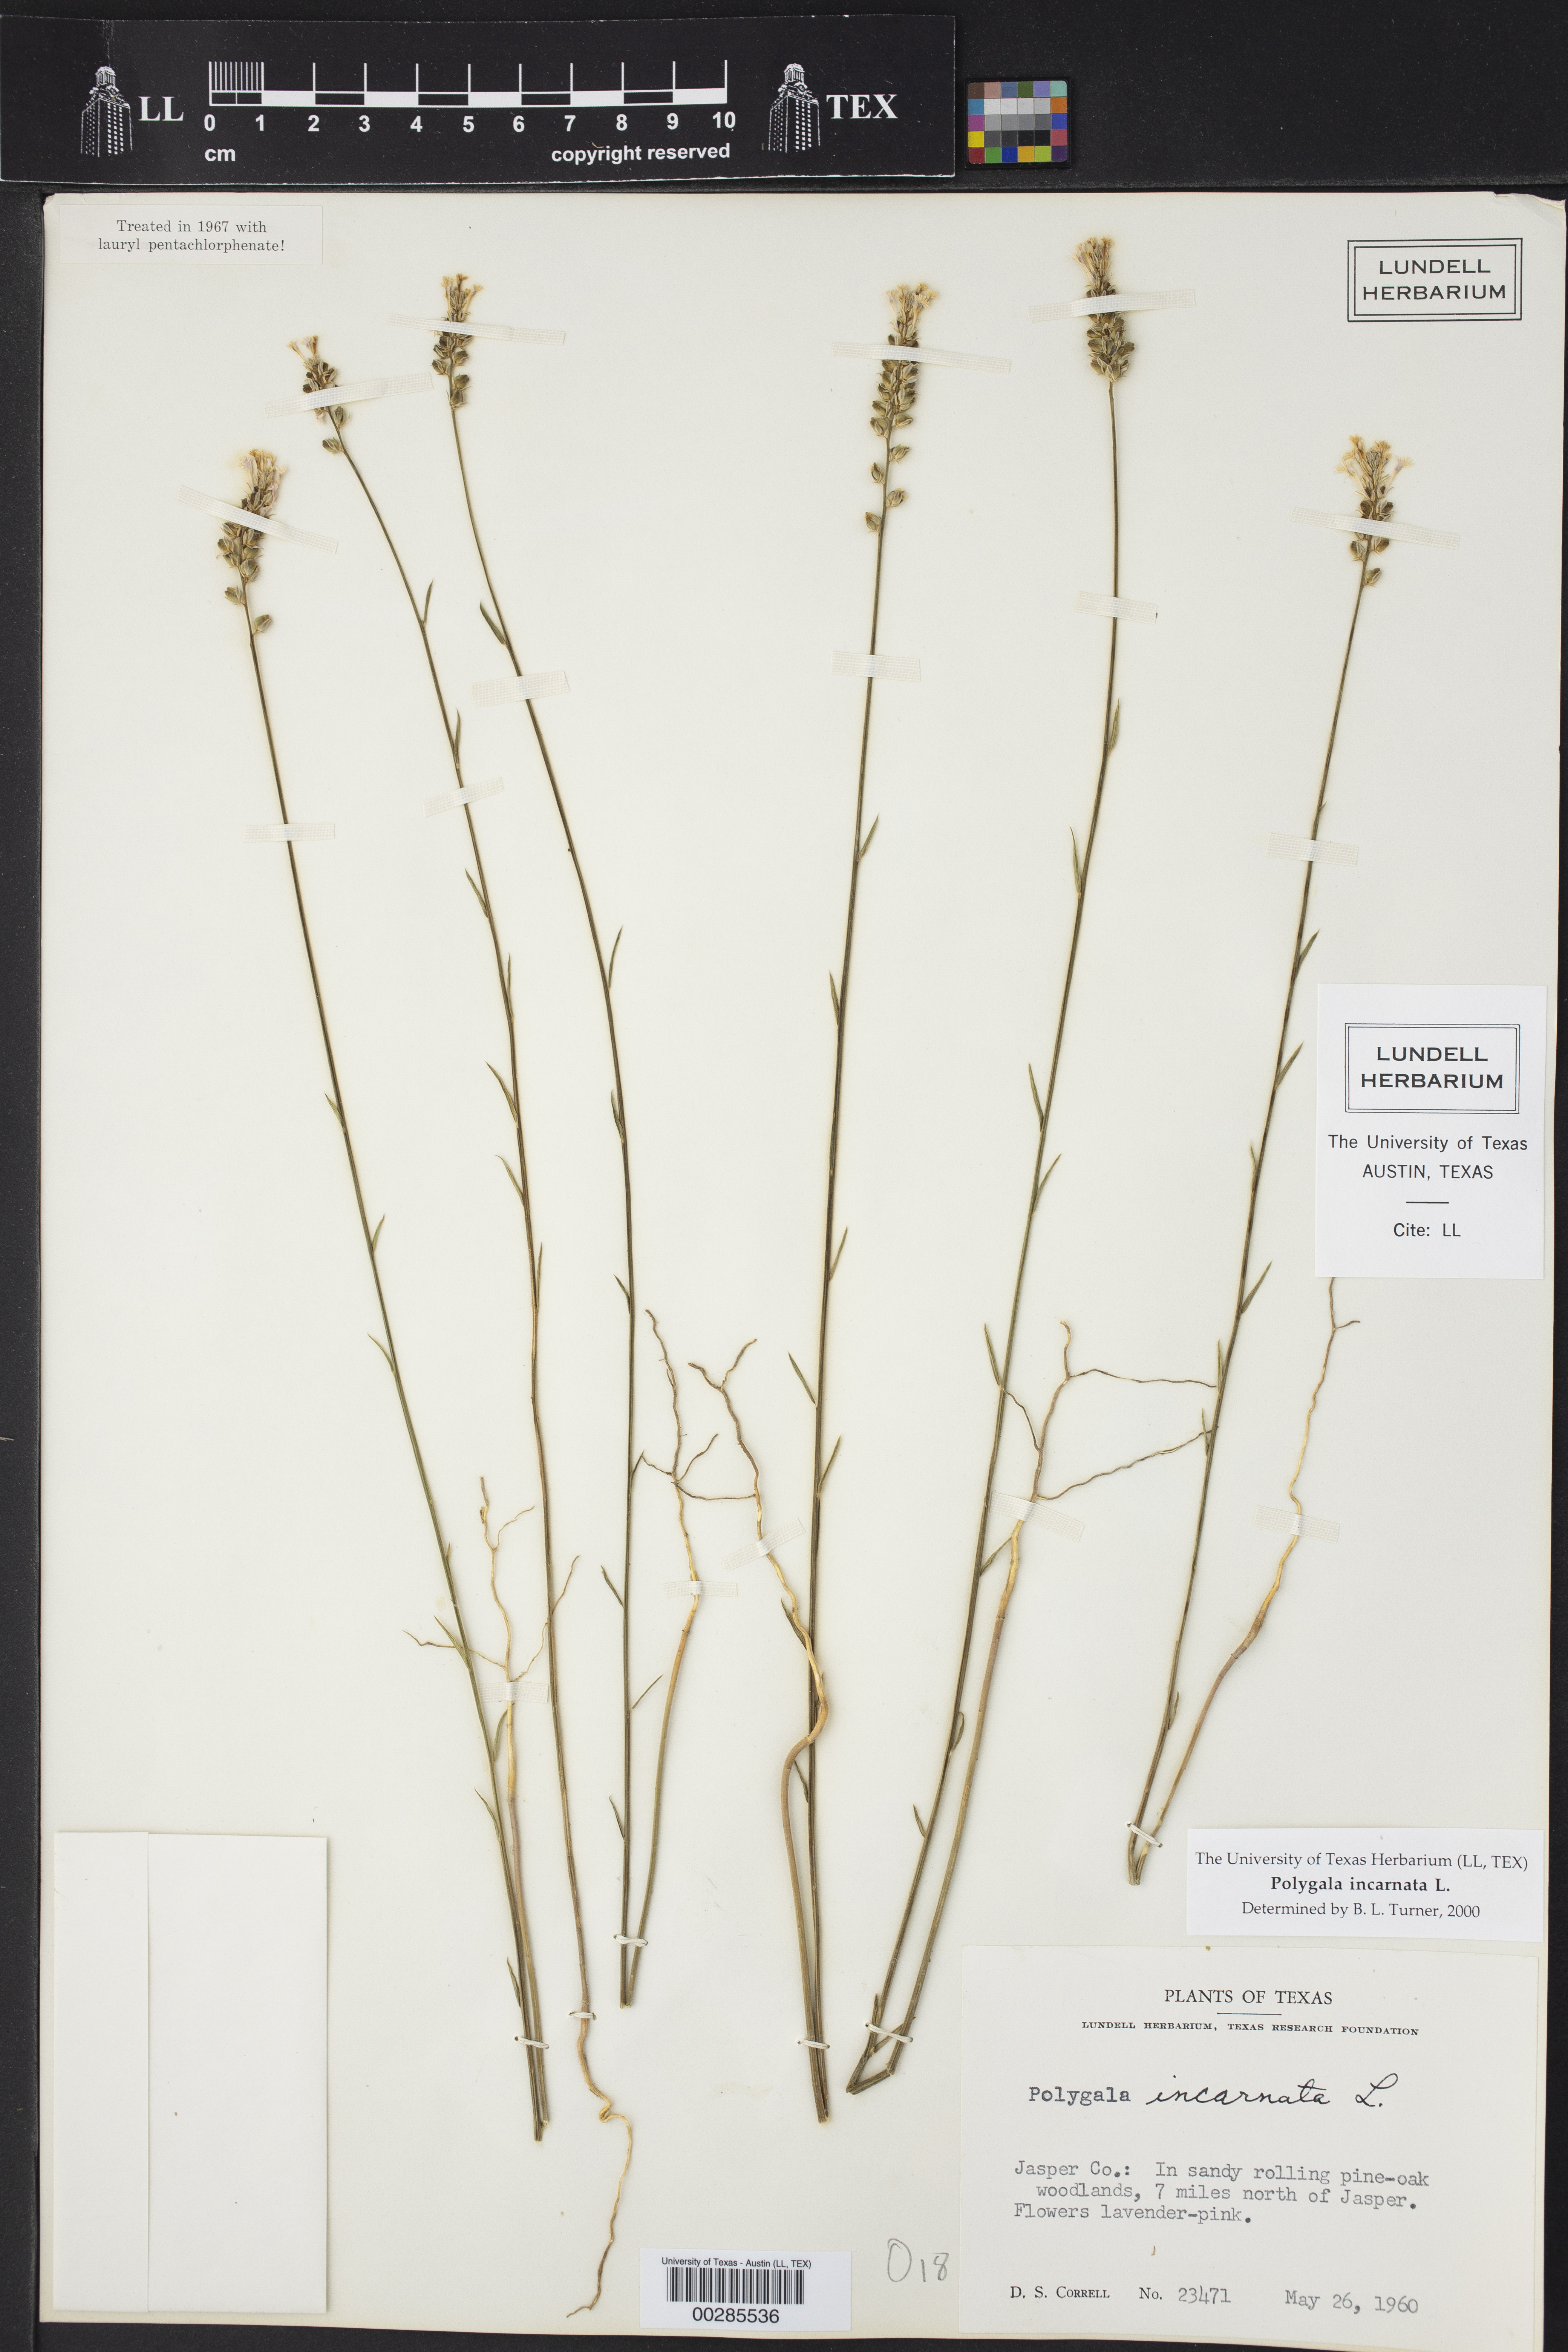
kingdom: Plantae
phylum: Tracheophyta
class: Magnoliopsida
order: Fabales
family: Polygalaceae
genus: Polygala
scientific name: Polygala incarnata
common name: Pink milkwort
